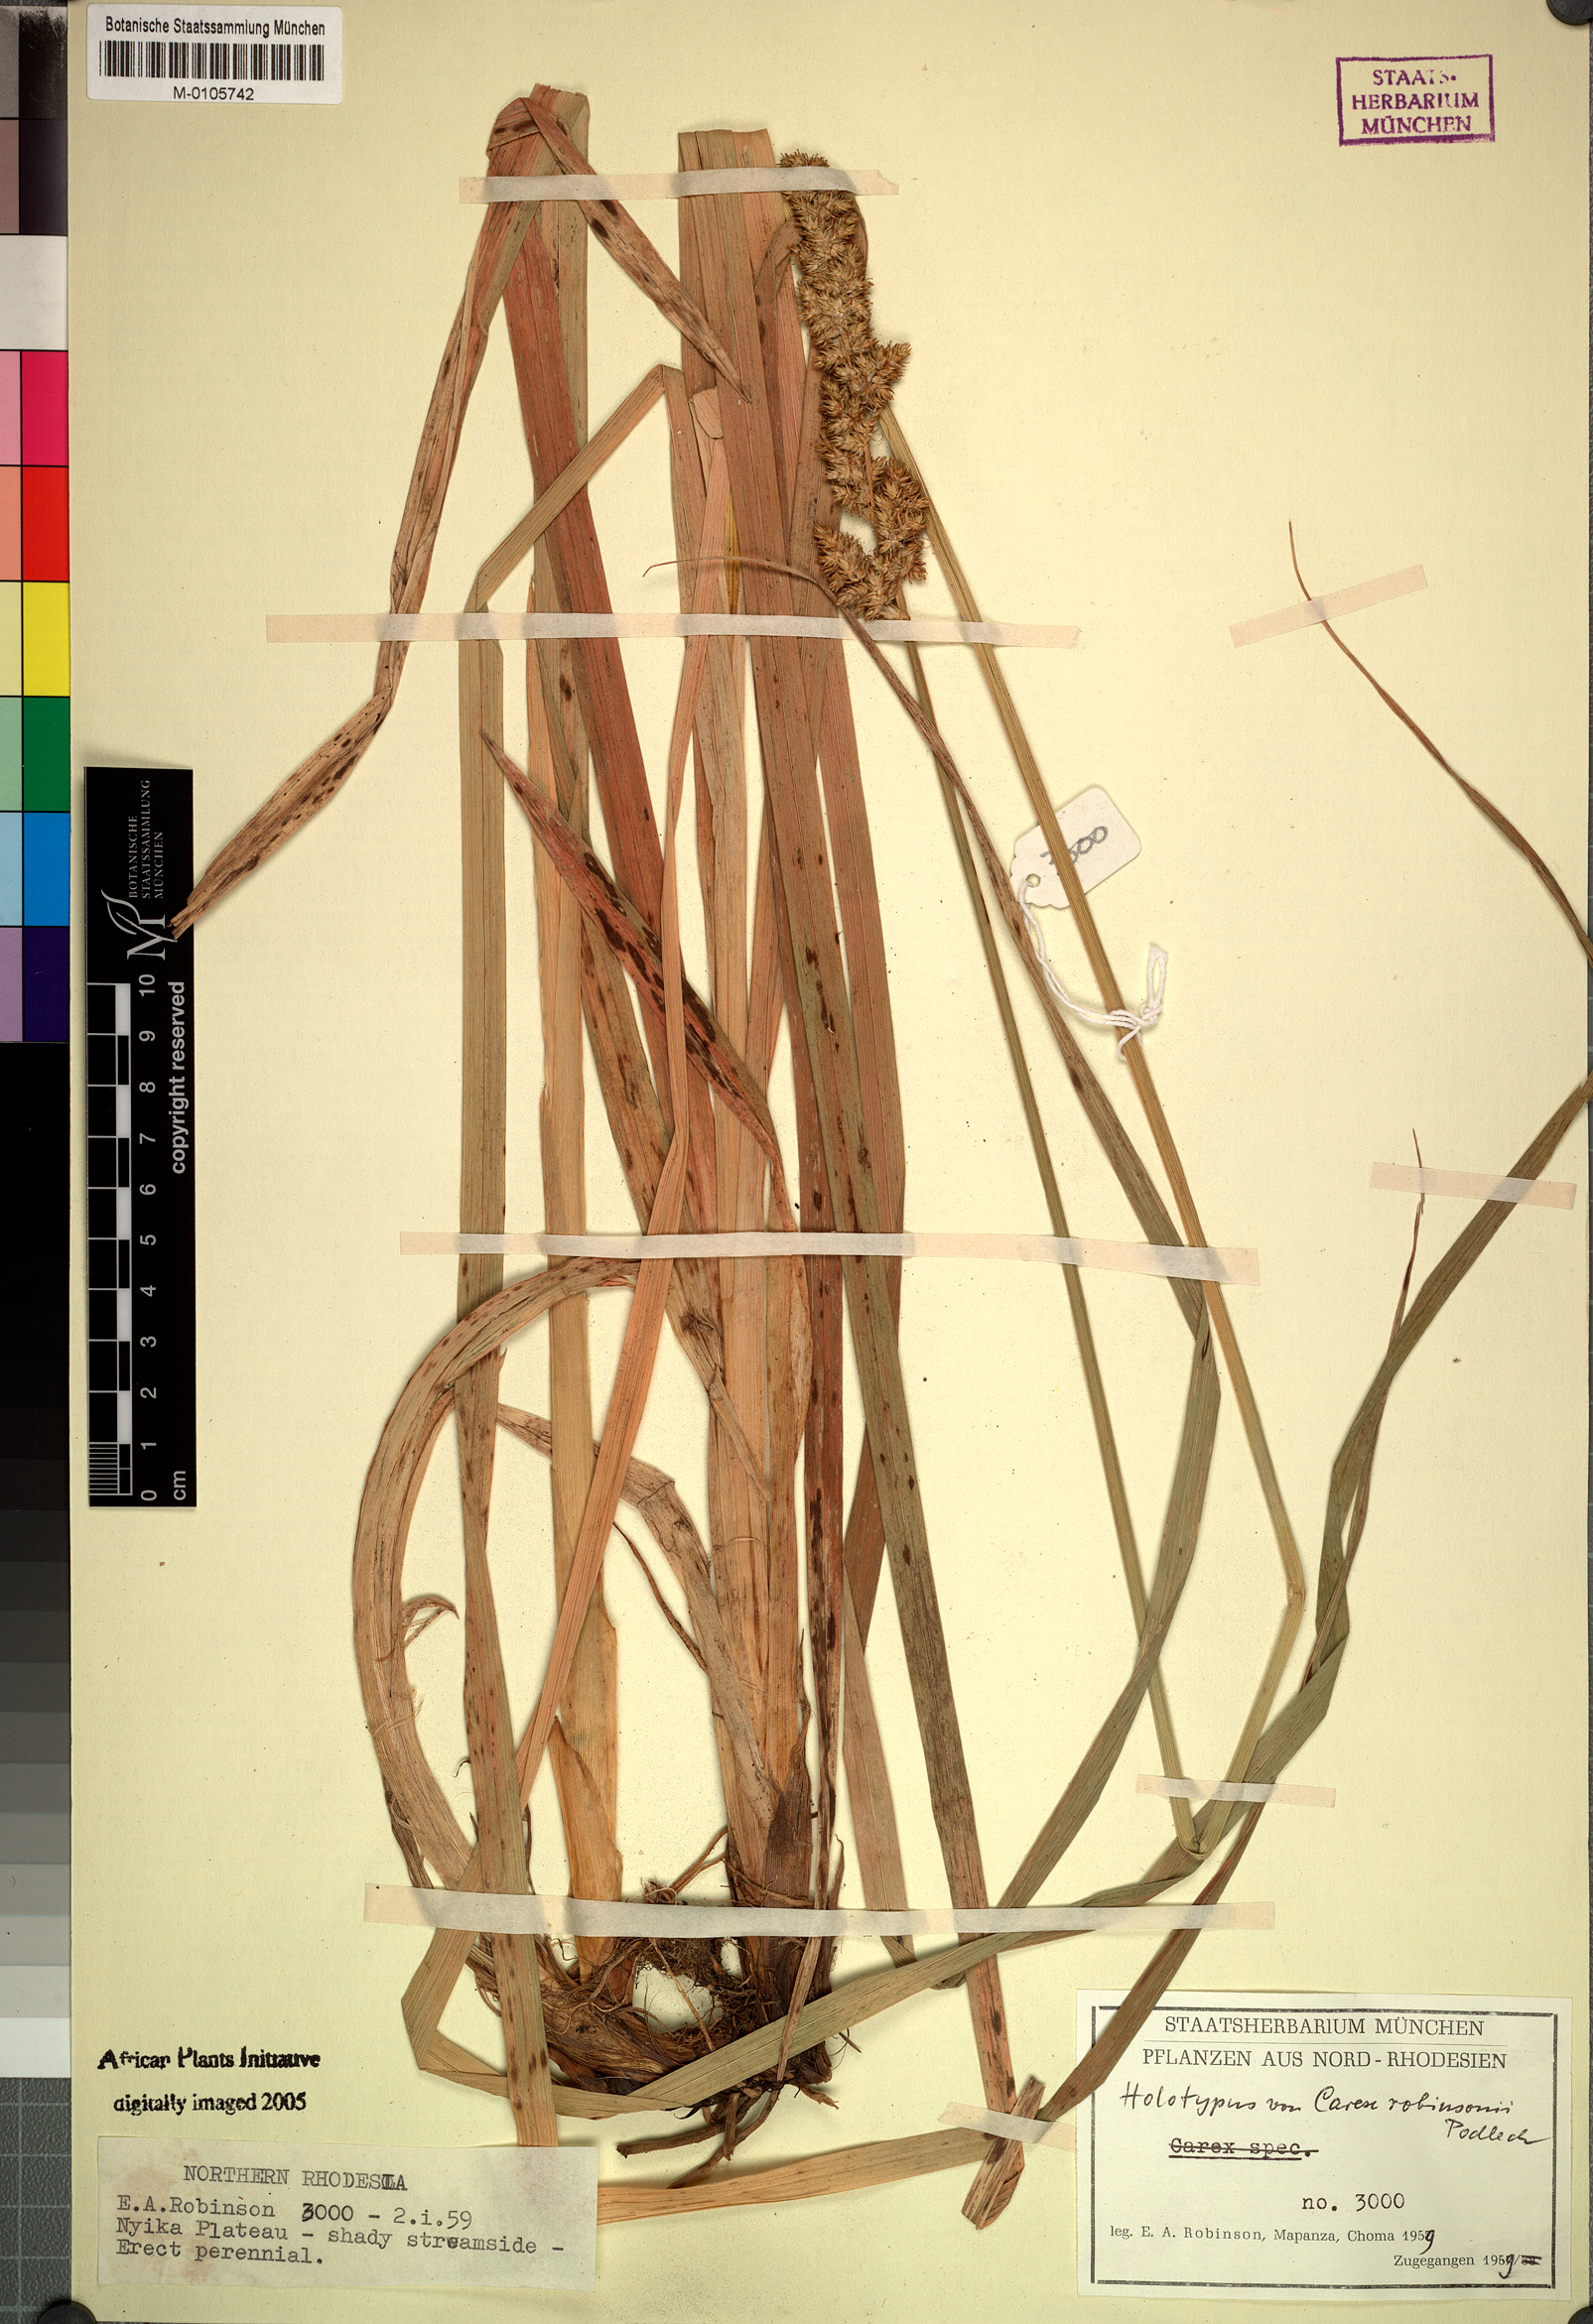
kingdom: Plantae
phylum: Tracheophyta
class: Liliopsida
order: Poales
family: Cyperaceae
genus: Carex
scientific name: Carex lycurus
